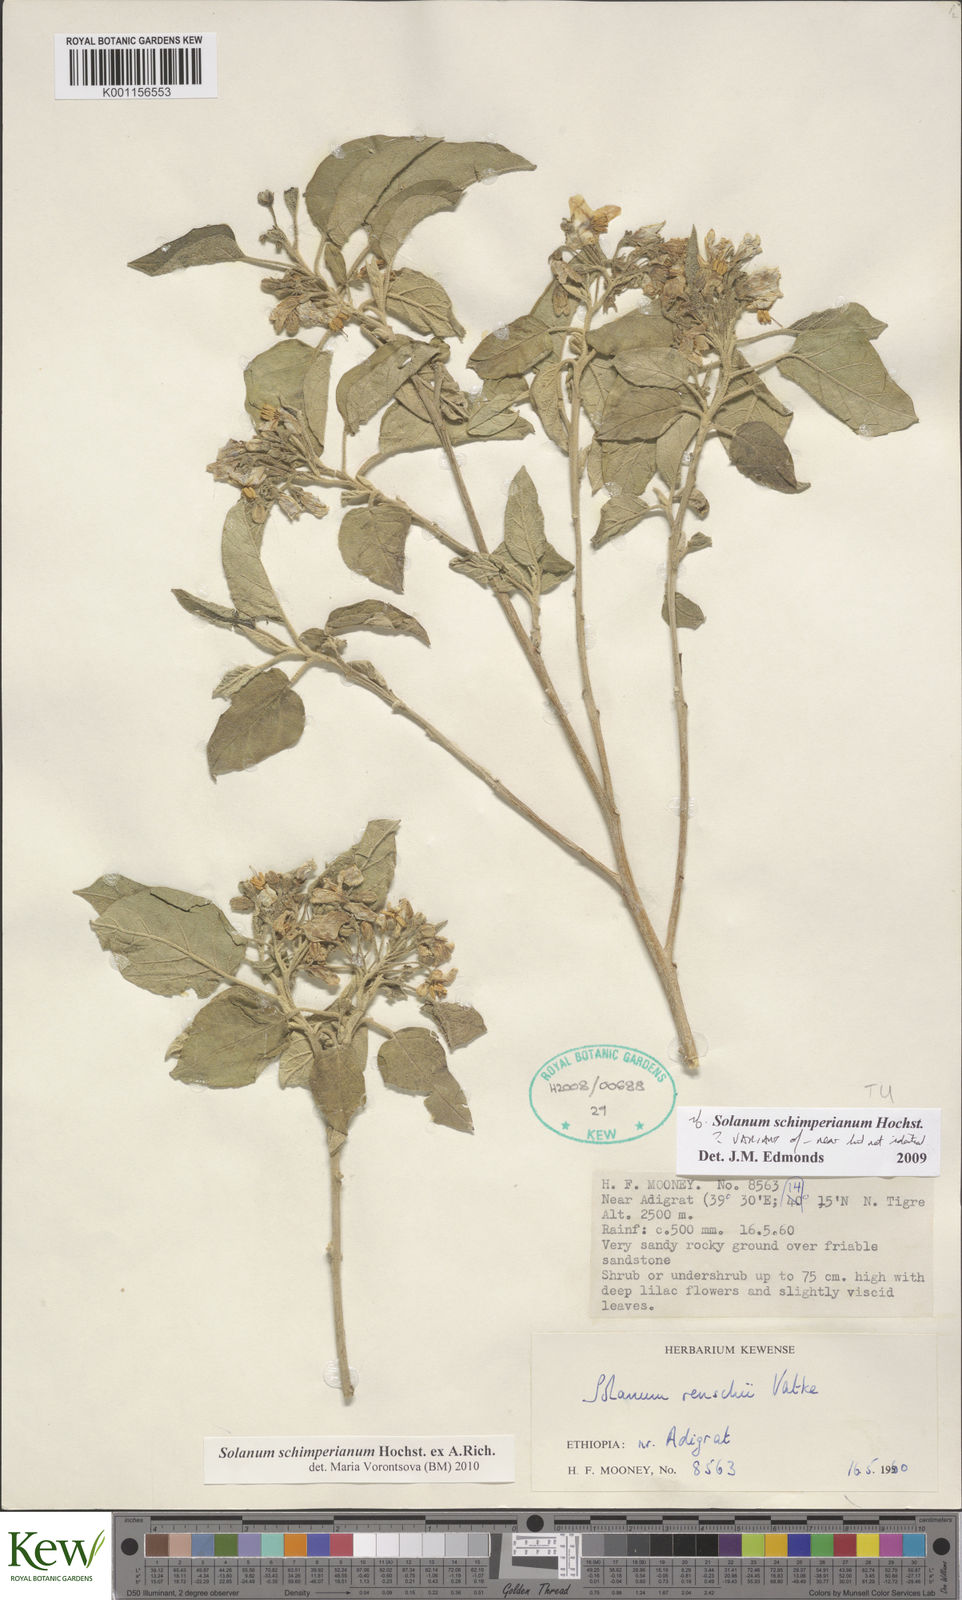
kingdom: Plantae
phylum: Tracheophyta
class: Magnoliopsida
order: Solanales
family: Solanaceae
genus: Solanum
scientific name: Solanum
